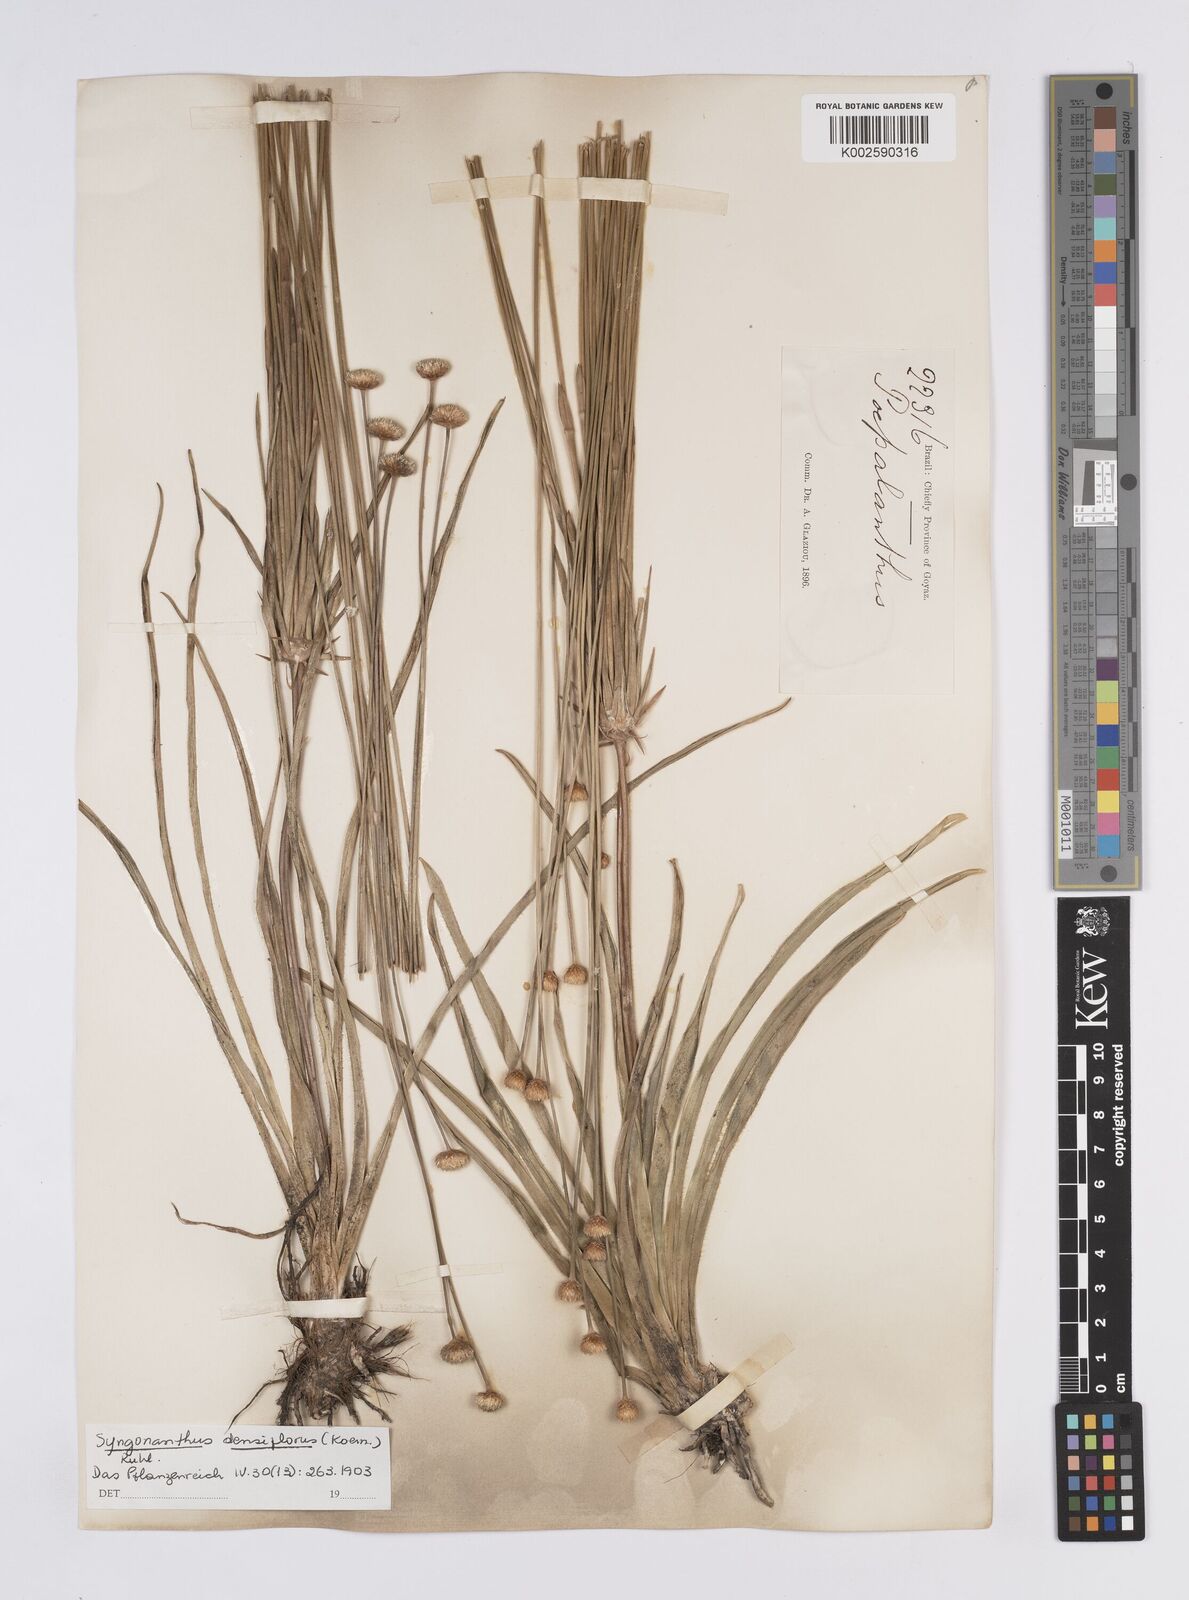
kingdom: Plantae
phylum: Tracheophyta
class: Liliopsida
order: Poales
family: Eriocaulaceae
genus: Syngonanthus
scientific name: Syngonanthus densiflorus
